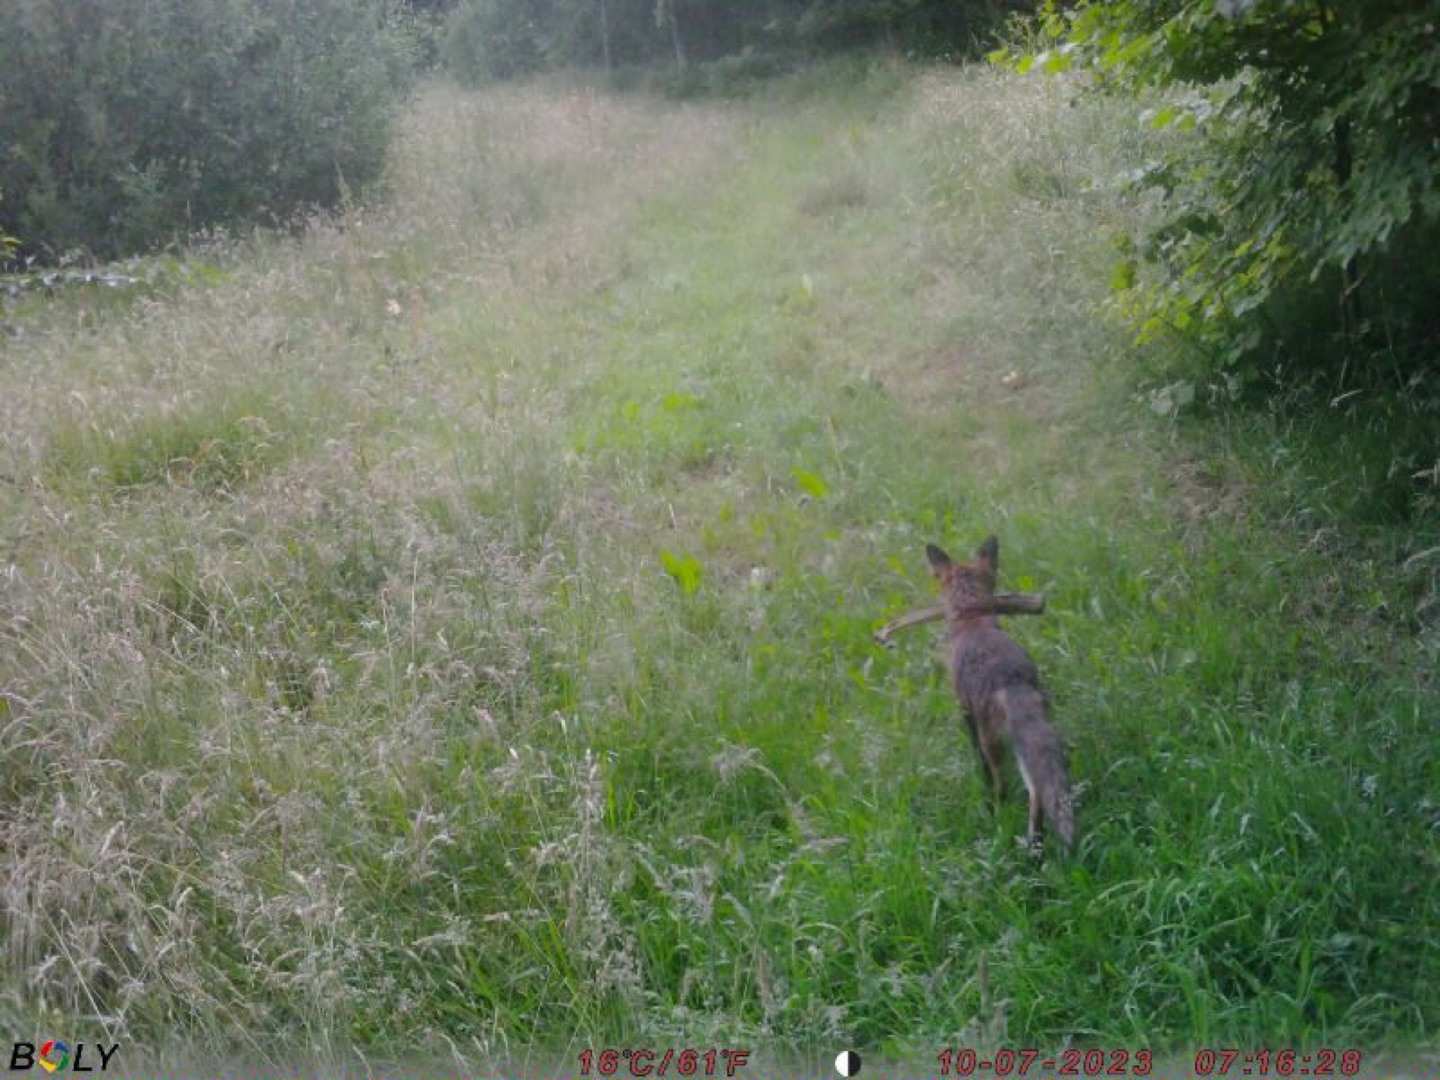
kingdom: Animalia
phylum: Chordata
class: Mammalia
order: Carnivora
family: Canidae
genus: Vulpes
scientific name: Vulpes vulpes
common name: Ræv
